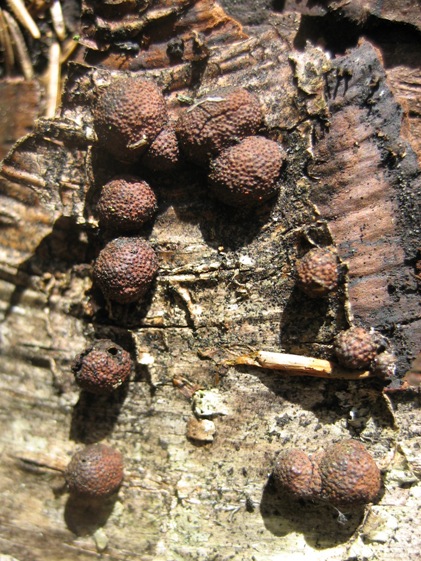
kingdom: Fungi
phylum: Ascomycota
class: Sordariomycetes
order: Xylariales
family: Hypoxylaceae
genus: Hypoxylon
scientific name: Hypoxylon fragiforme
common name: kuljordbær
